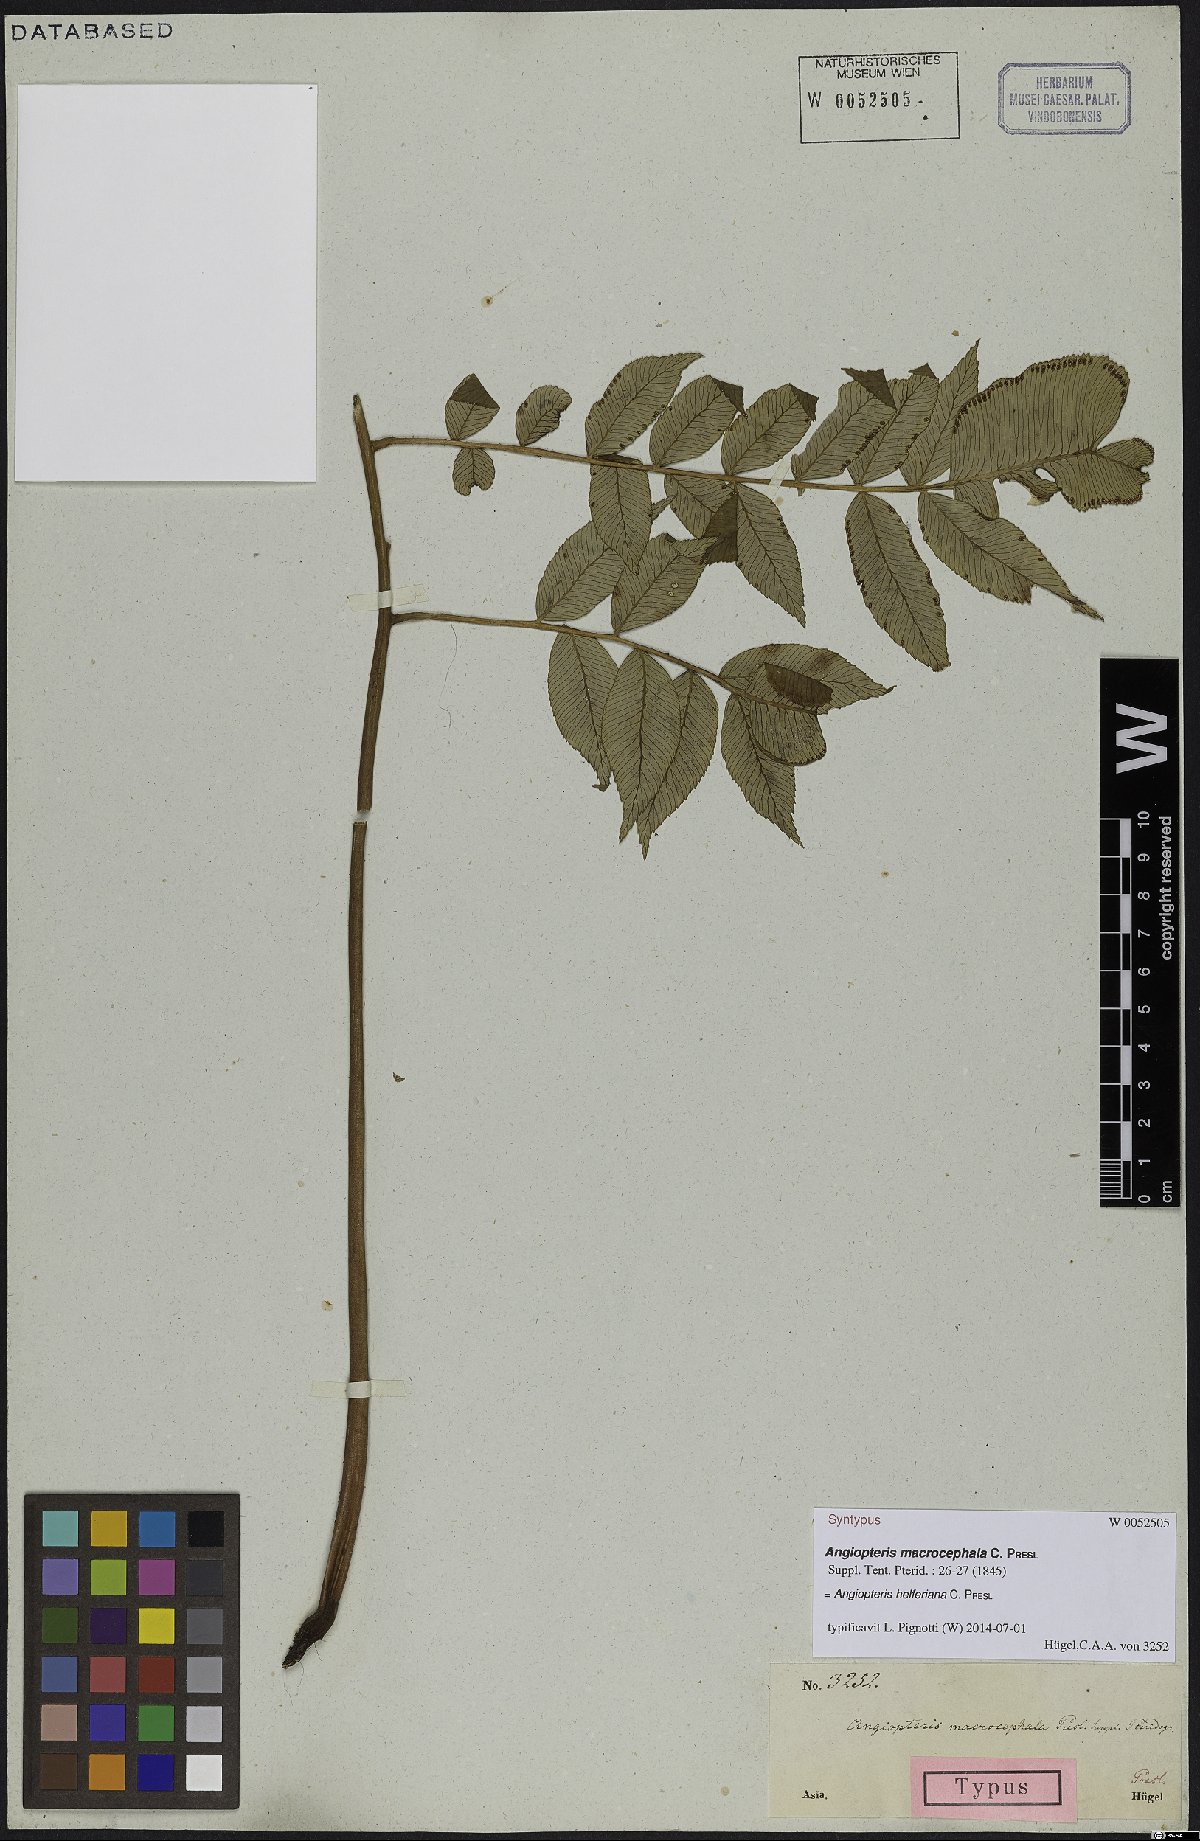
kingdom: Plantae
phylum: Tracheophyta
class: Polypodiopsida
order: Marattiales
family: Marattiaceae
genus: Angiopteris
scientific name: Angiopteris helferiana
